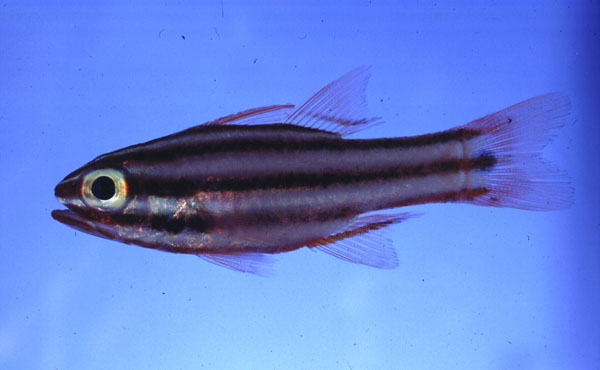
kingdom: Animalia
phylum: Chordata
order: Perciformes
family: Apogonidae
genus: Ostorhinchus
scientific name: Ostorhinchus angustatus
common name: Narrow-striped cardinalfish
